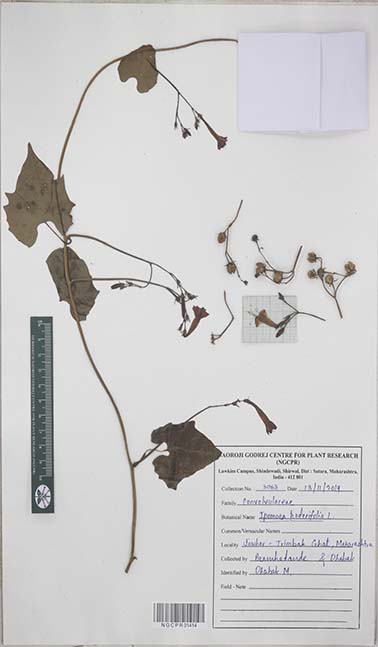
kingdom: Plantae
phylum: Tracheophyta
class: Magnoliopsida
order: Solanales
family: Convolvulaceae
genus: Ipomoea
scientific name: Ipomoea hederifolia
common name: Ivy-leaf morning-glory
